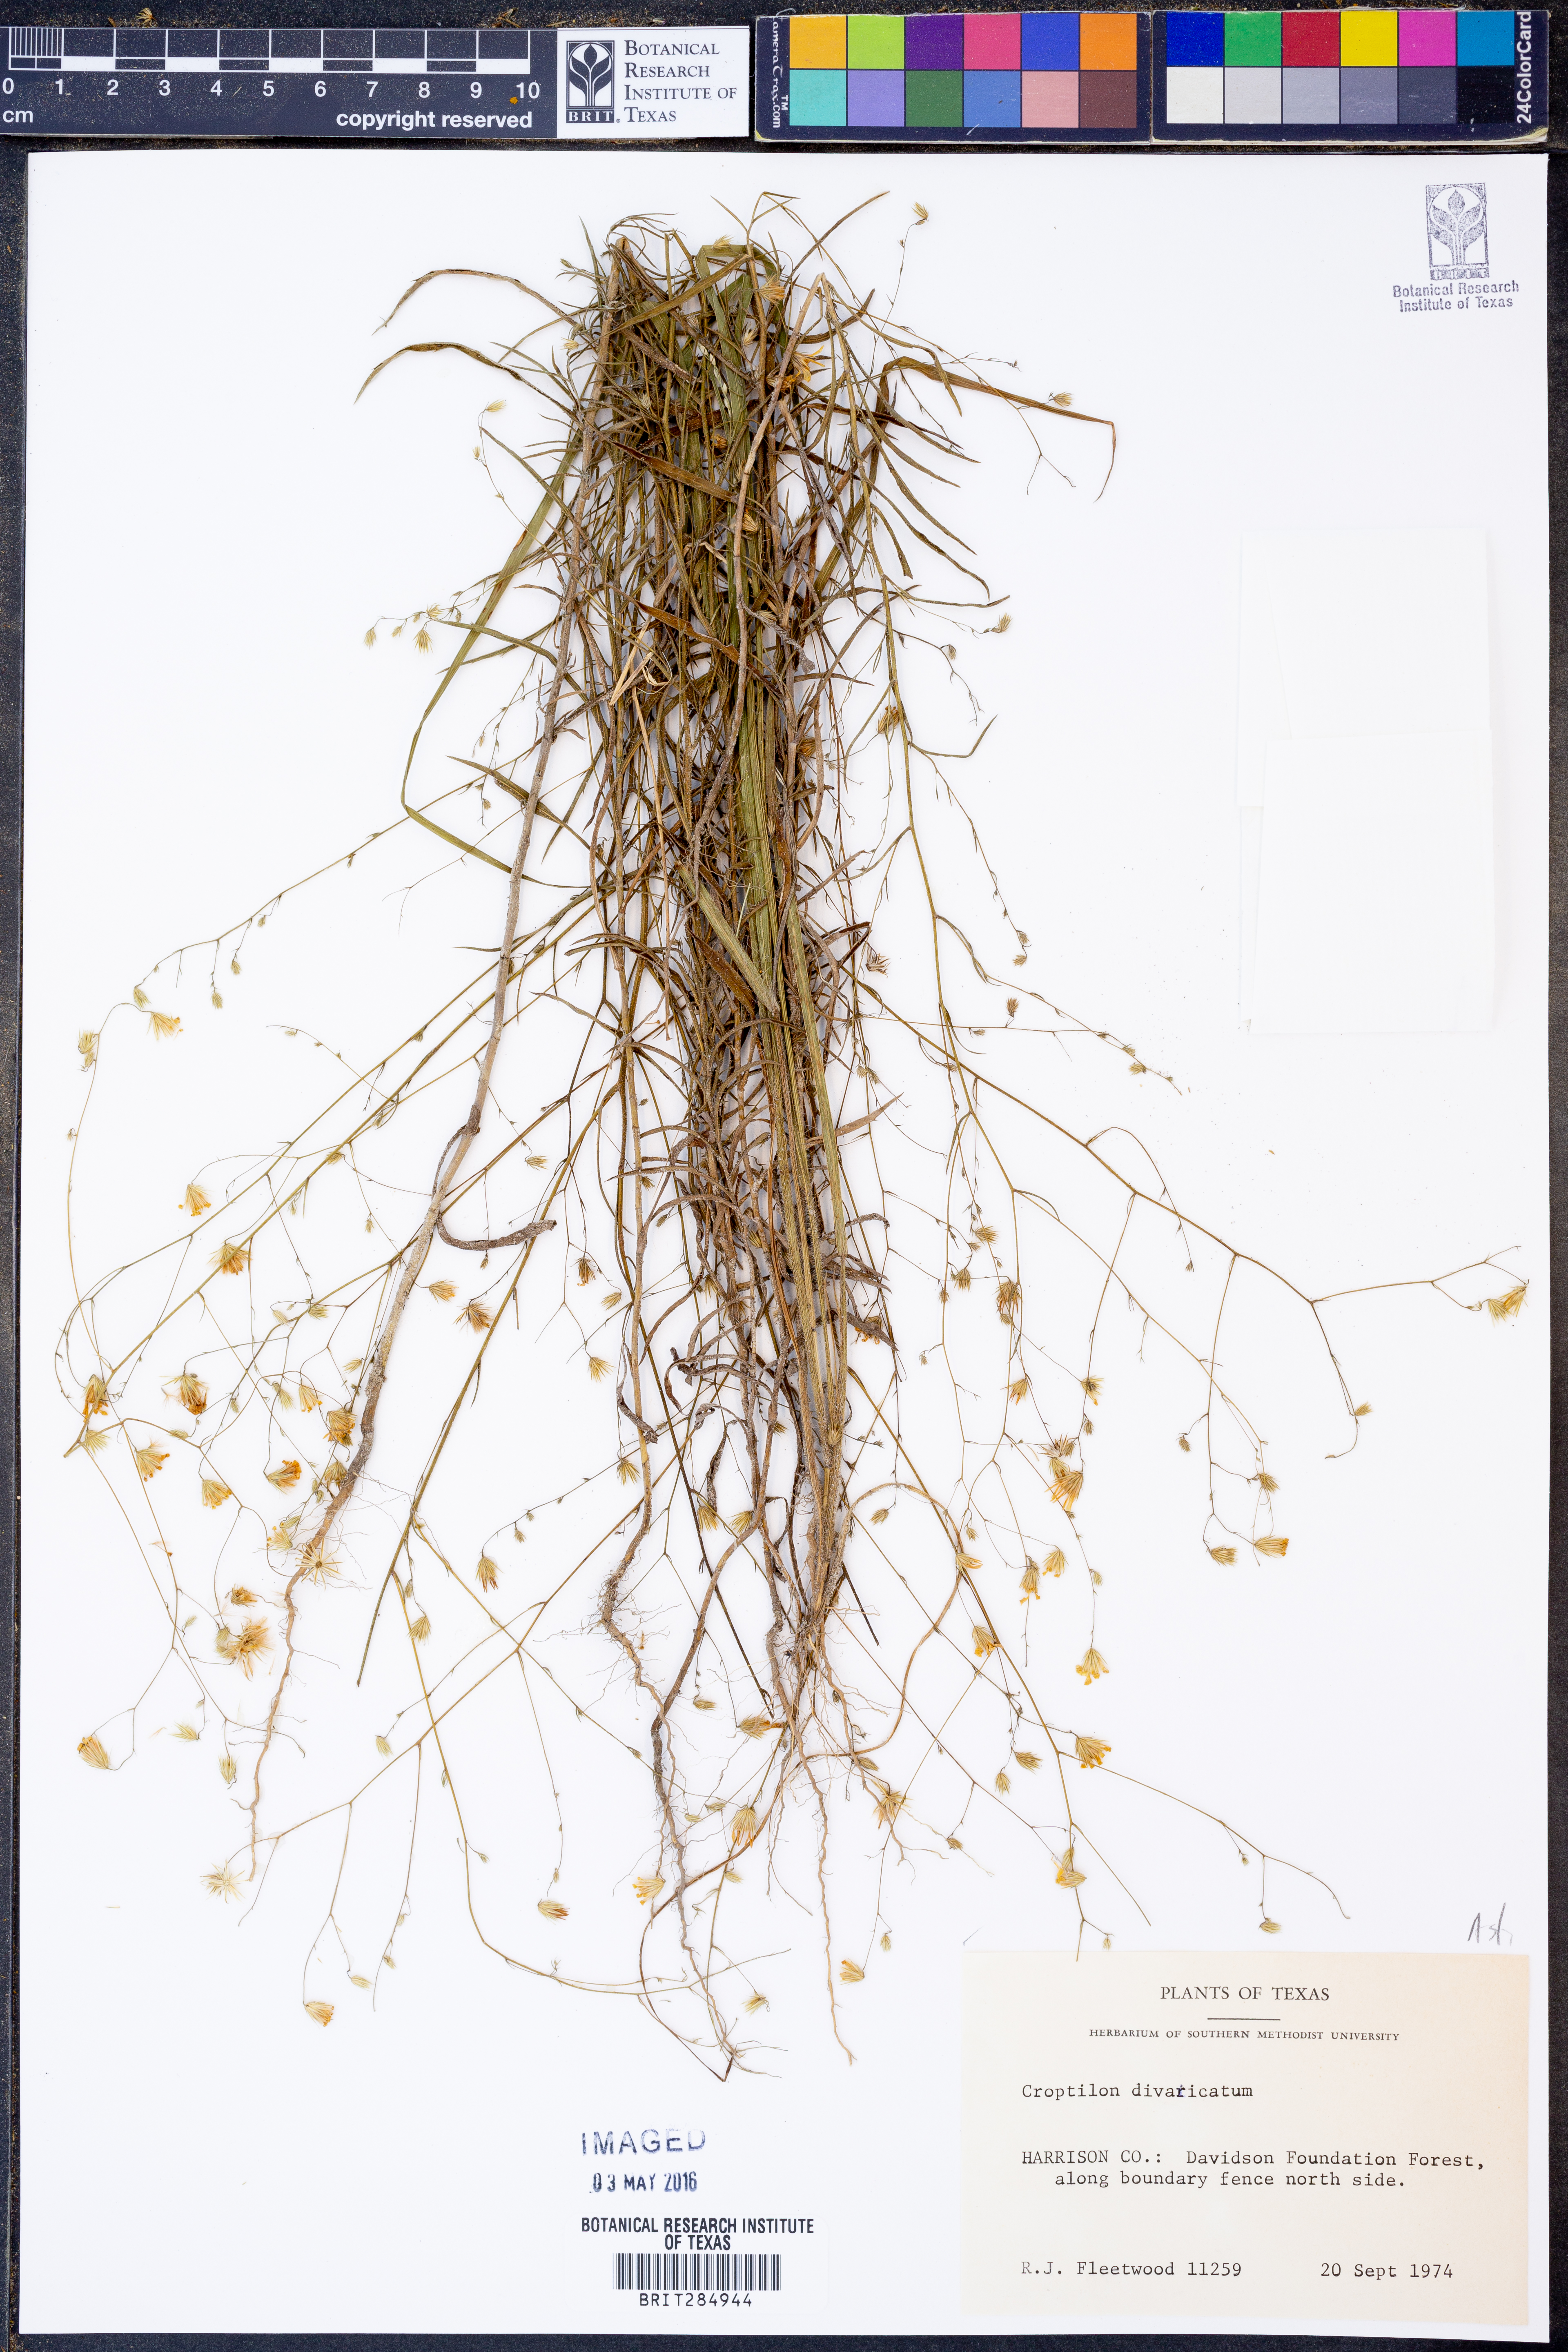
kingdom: Plantae
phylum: Tracheophyta
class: Magnoliopsida
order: Asterales
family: Asteraceae
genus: Croptilon
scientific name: Croptilon divaricatum
